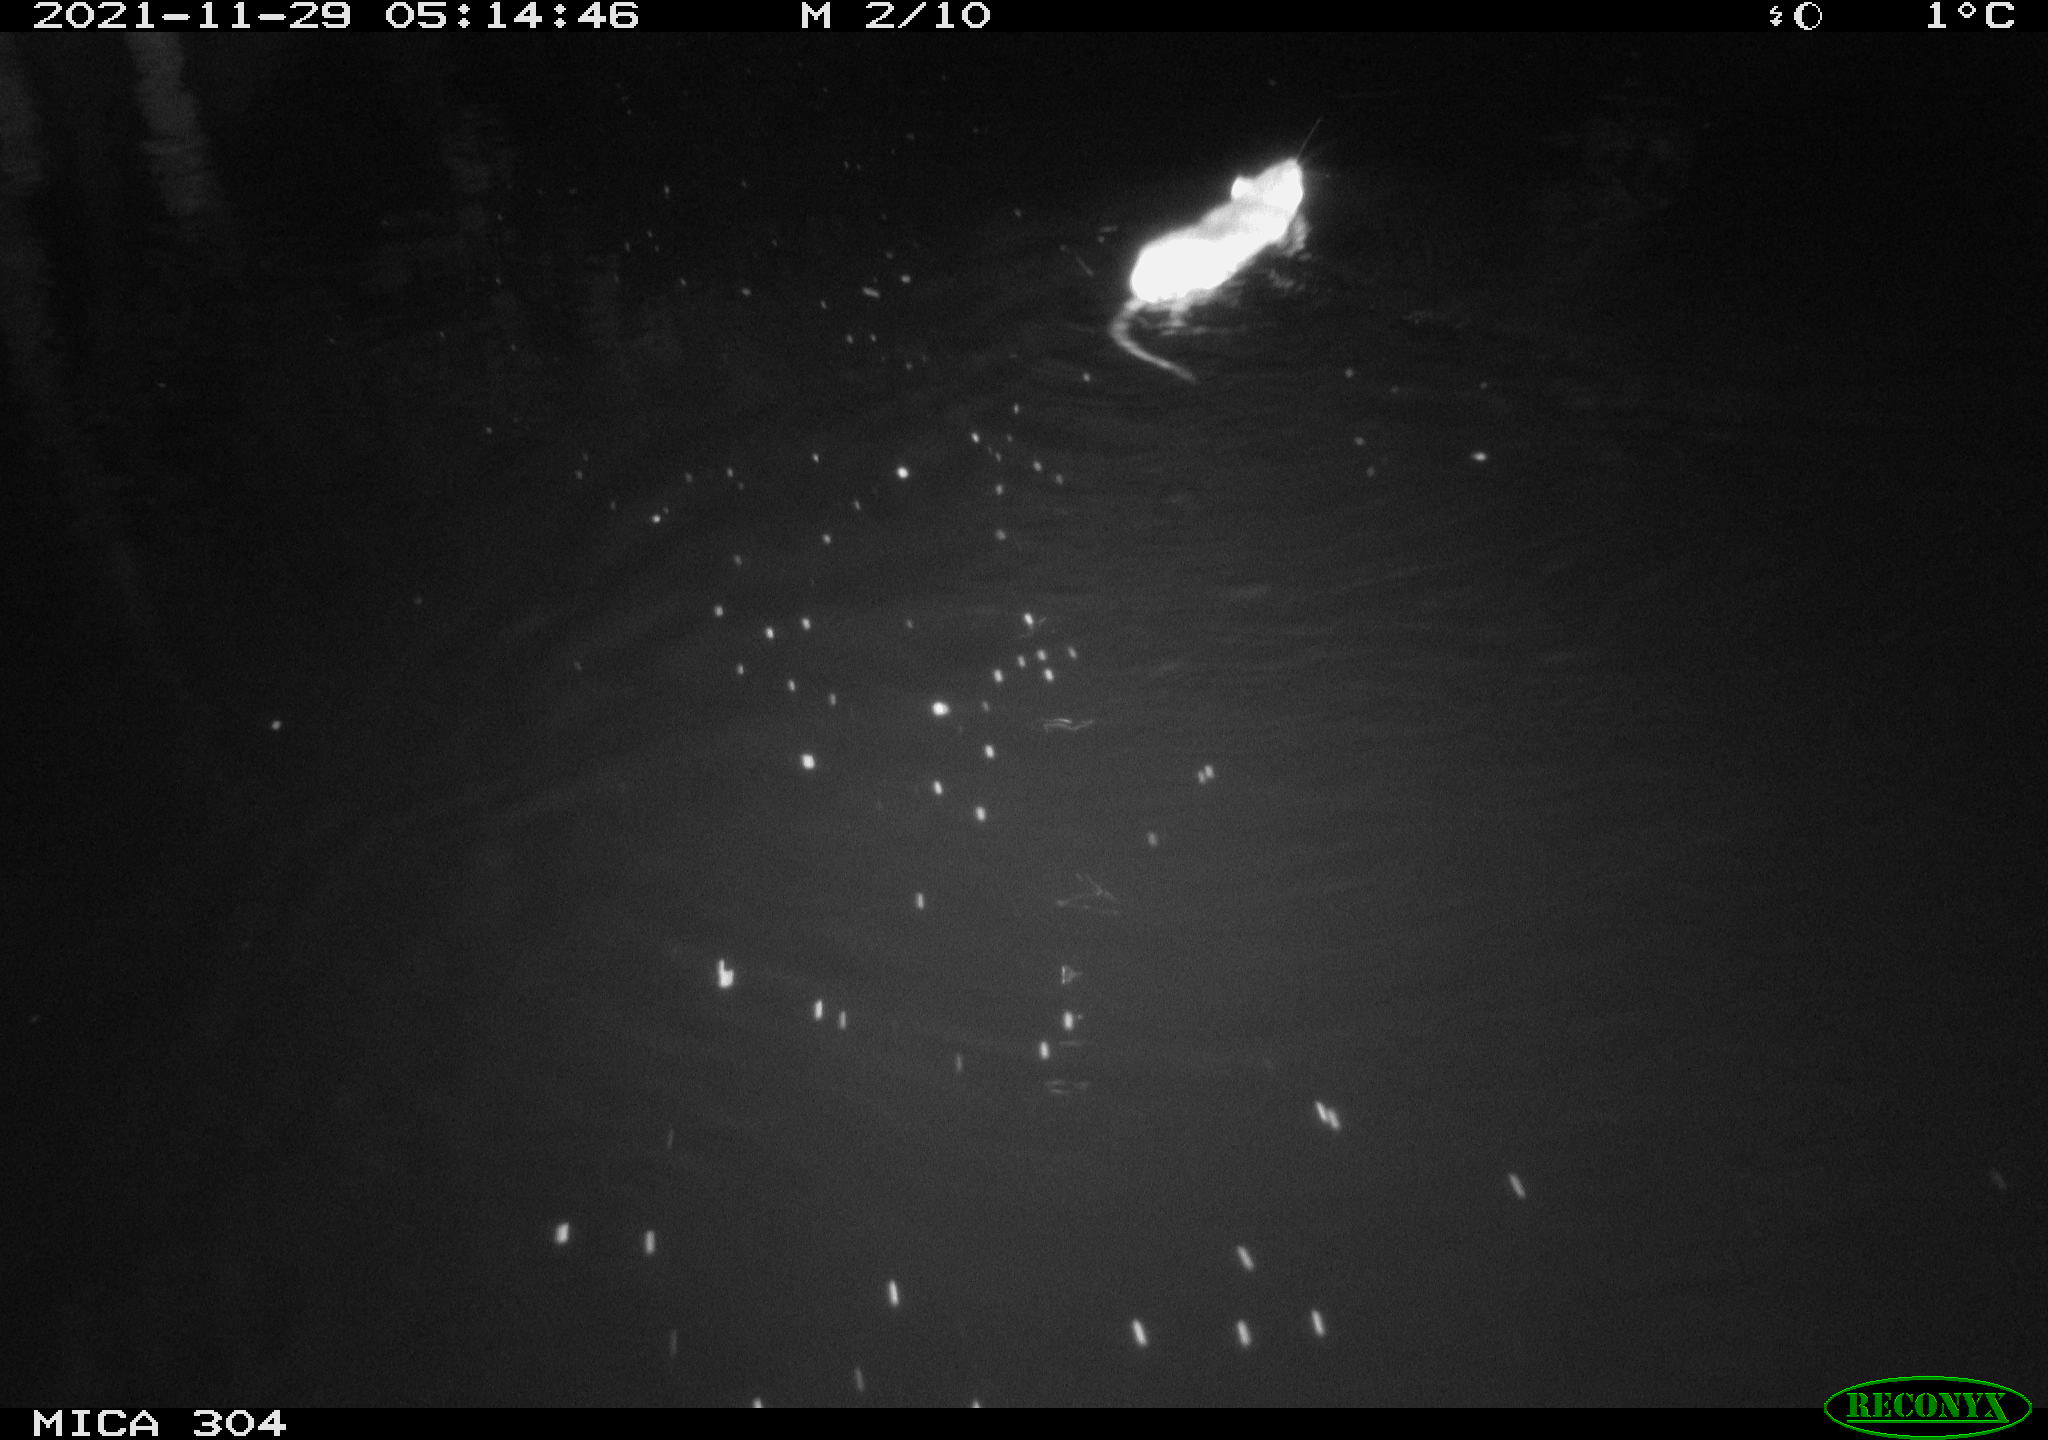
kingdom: Animalia
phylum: Chordata
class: Mammalia
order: Rodentia
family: Muridae
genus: Rattus
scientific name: Rattus norvegicus
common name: Brown rat
